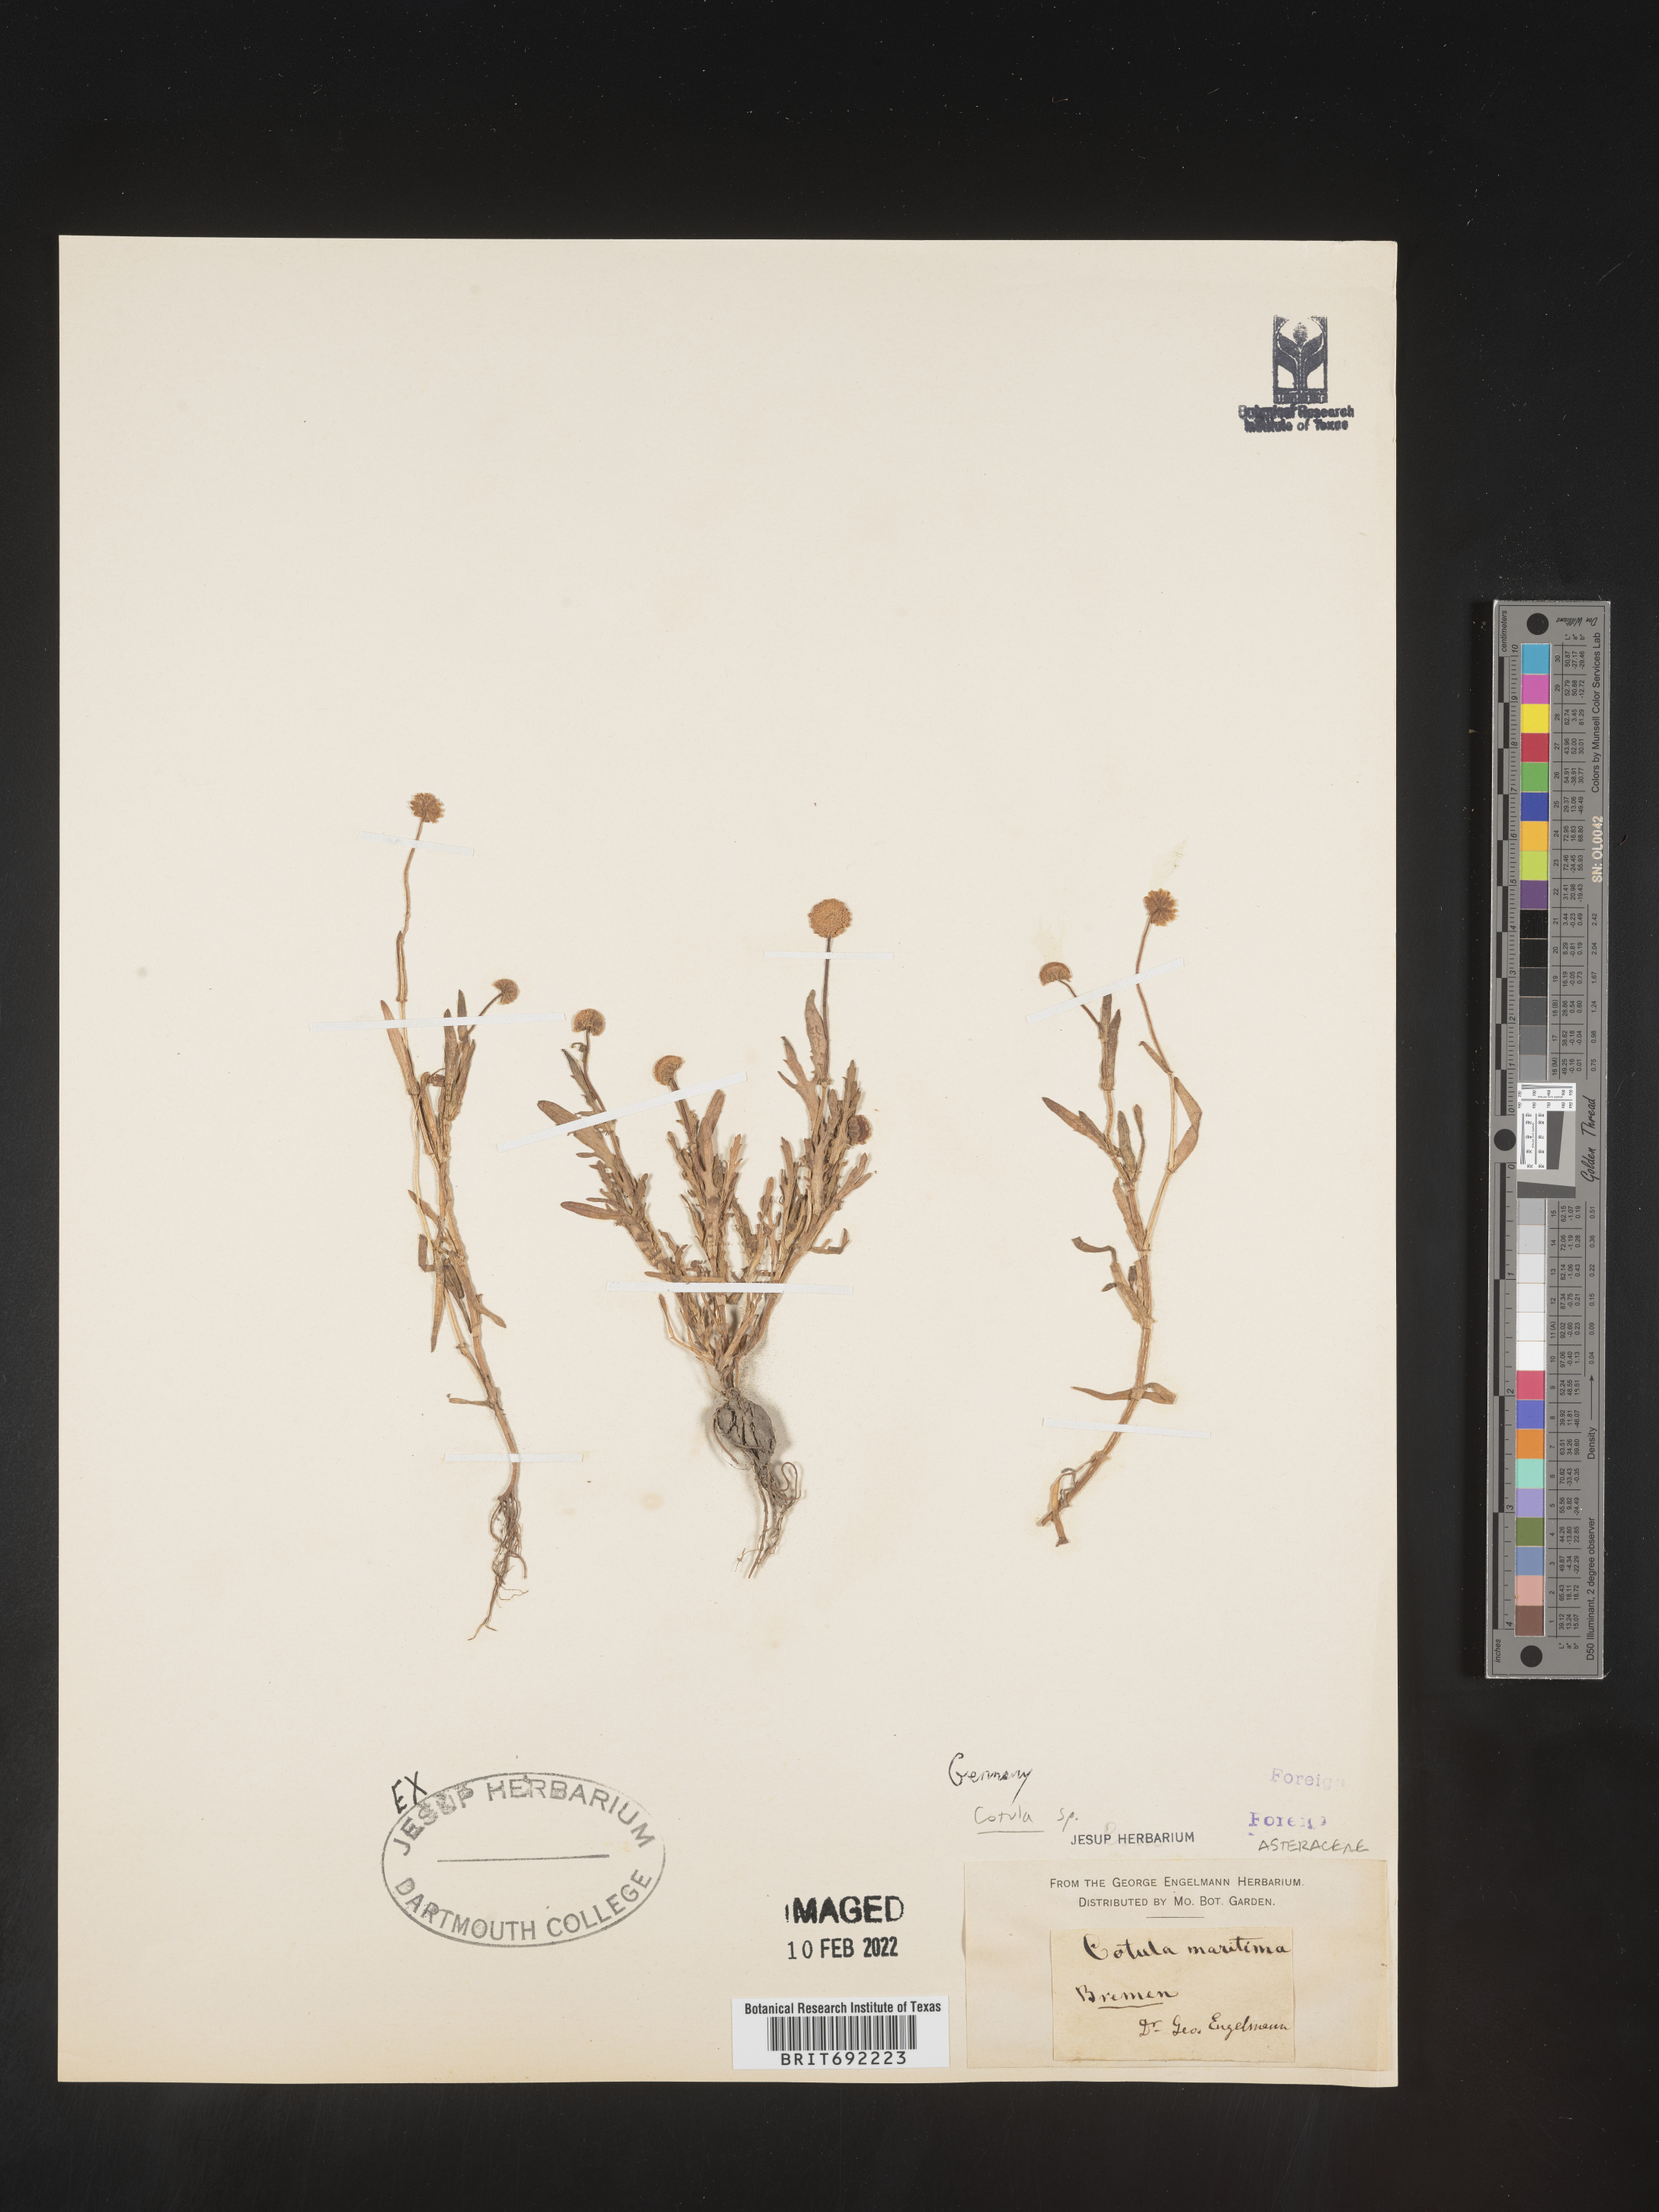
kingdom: Plantae
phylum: Tracheophyta
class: Magnoliopsida
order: Asterales
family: Asteraceae
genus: Cotula
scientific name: Cotula
